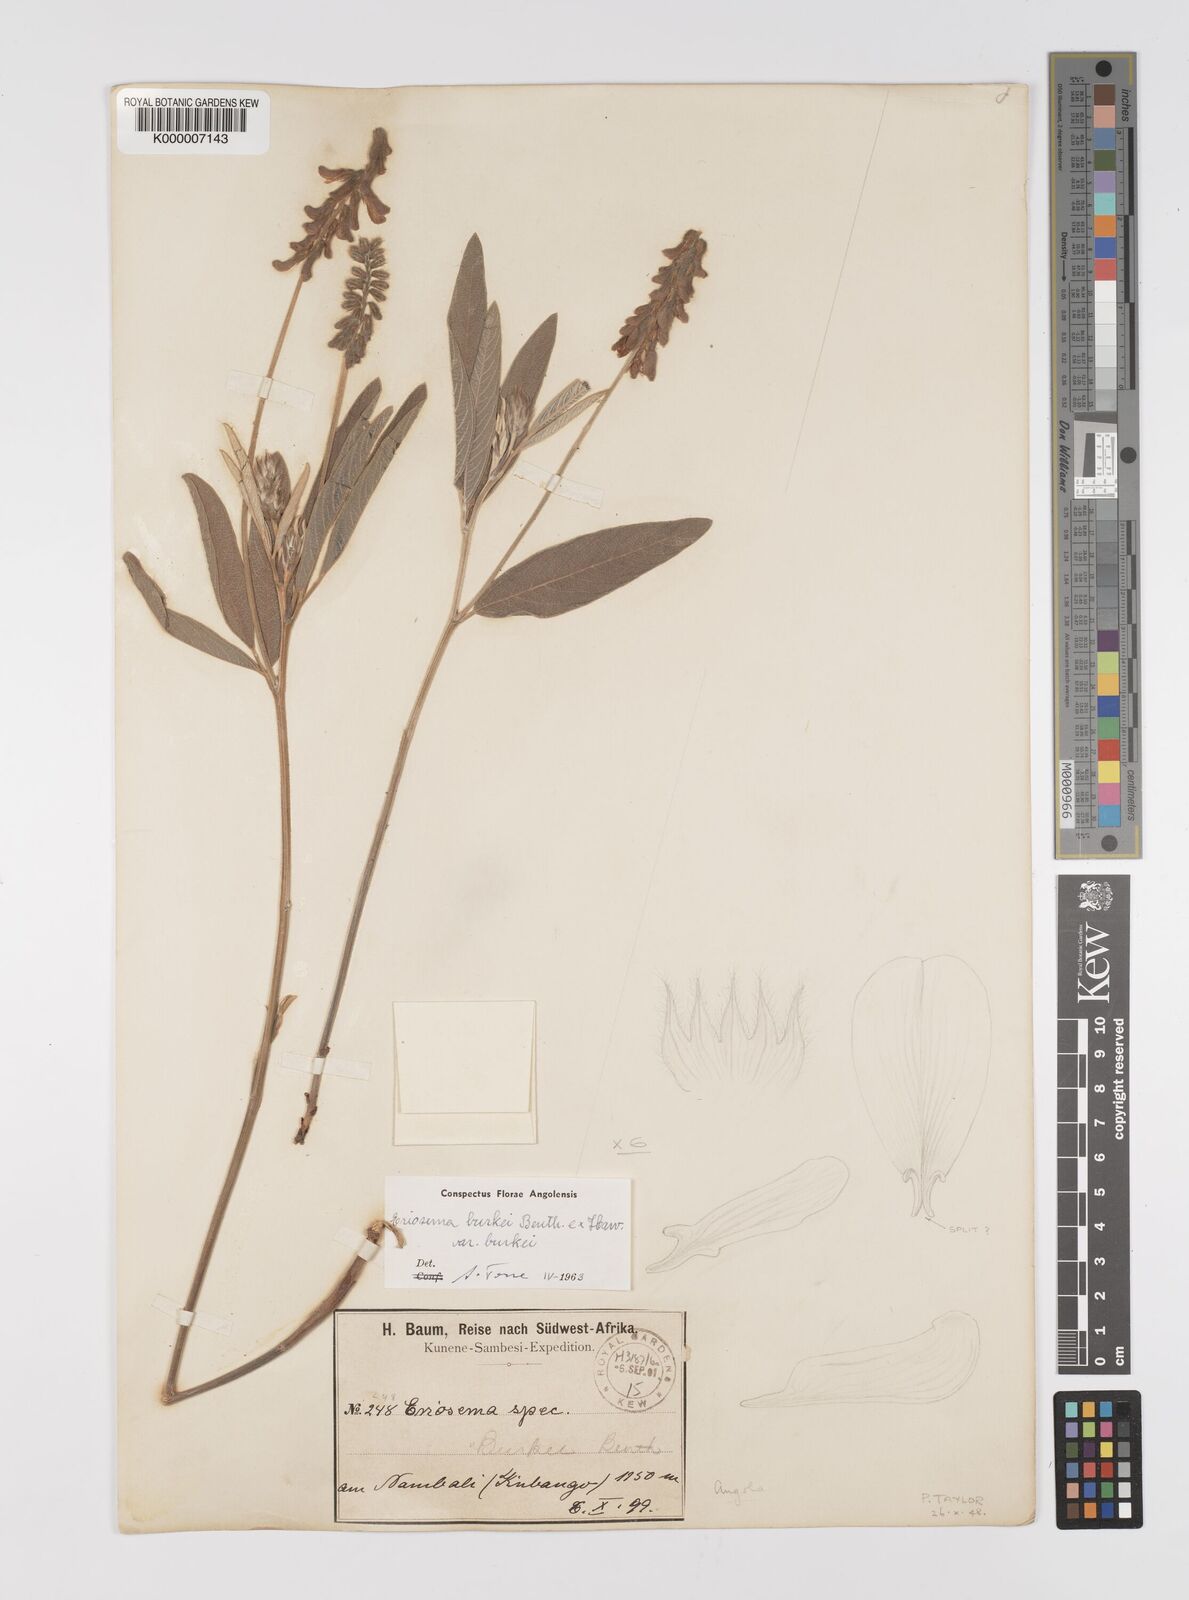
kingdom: Plantae
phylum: Tracheophyta
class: Magnoliopsida
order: Fabales
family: Fabaceae
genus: Eriosema
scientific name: Eriosema burkei
